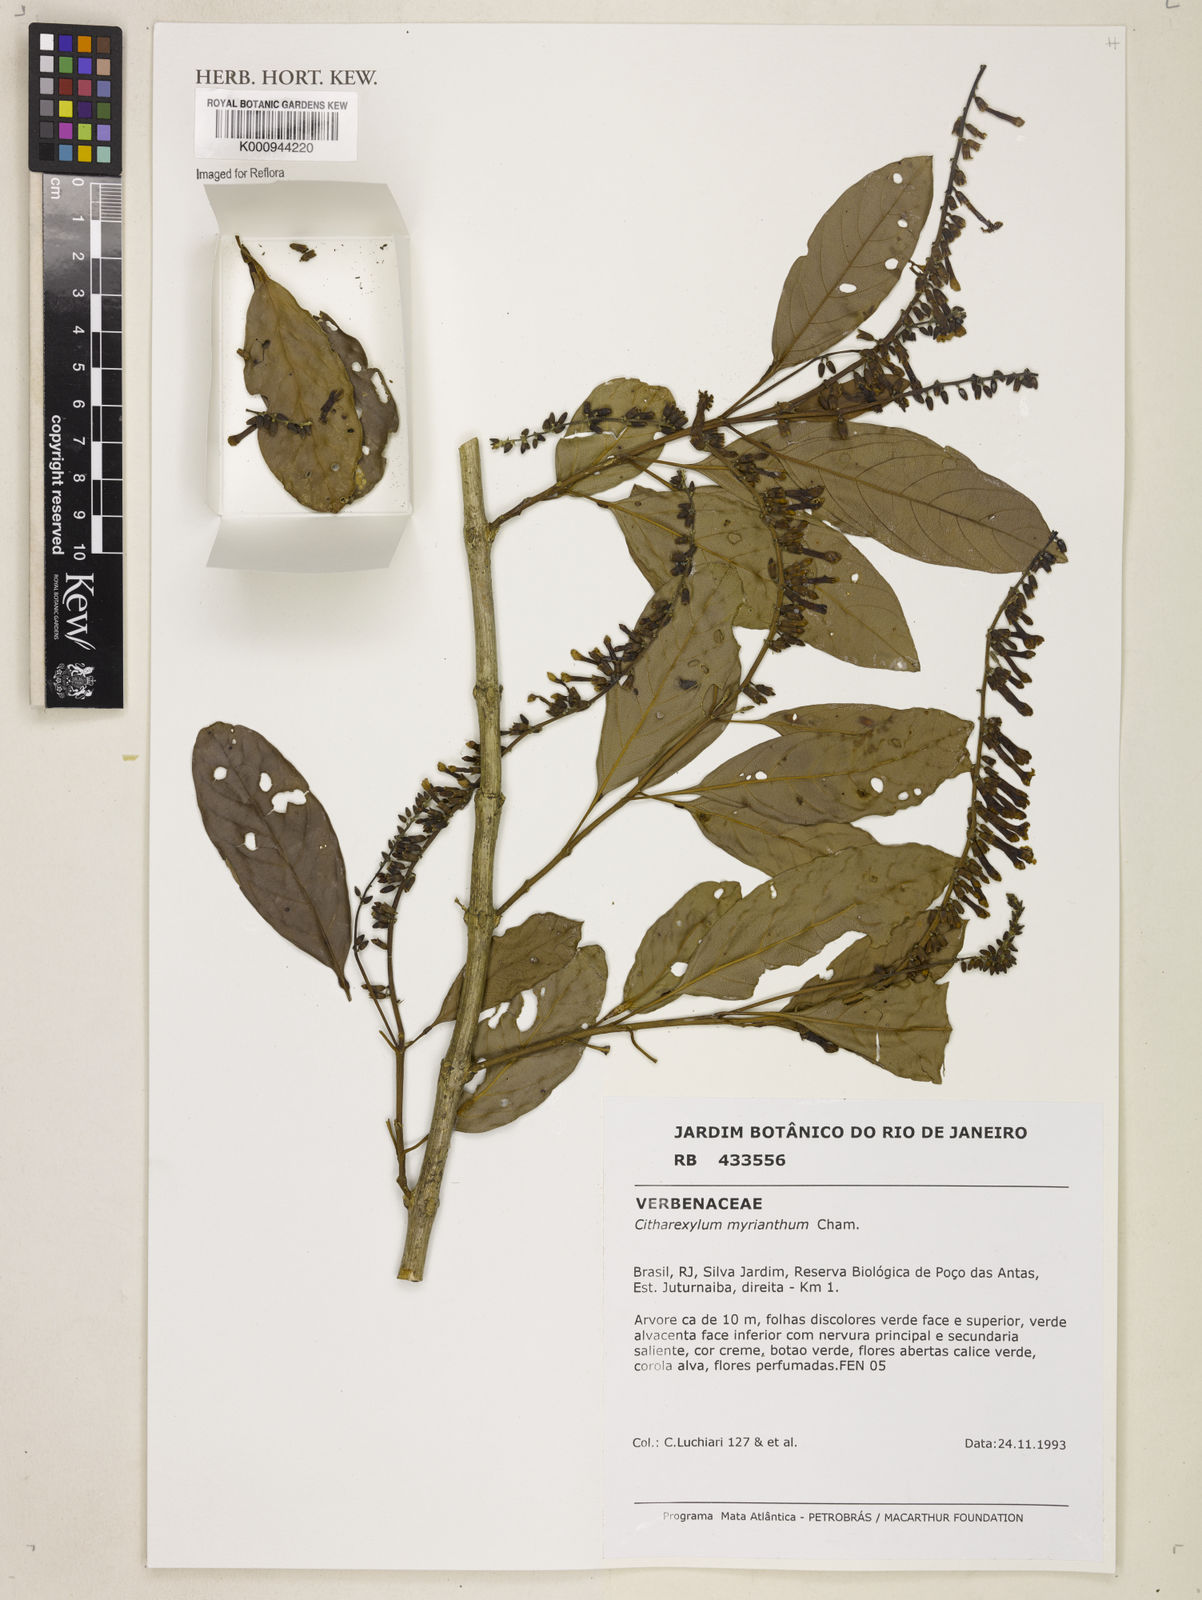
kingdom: Plantae
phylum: Tracheophyta
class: Magnoliopsida
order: Lamiales
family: Verbenaceae
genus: Citharexylum
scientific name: Citharexylum myrianthum
